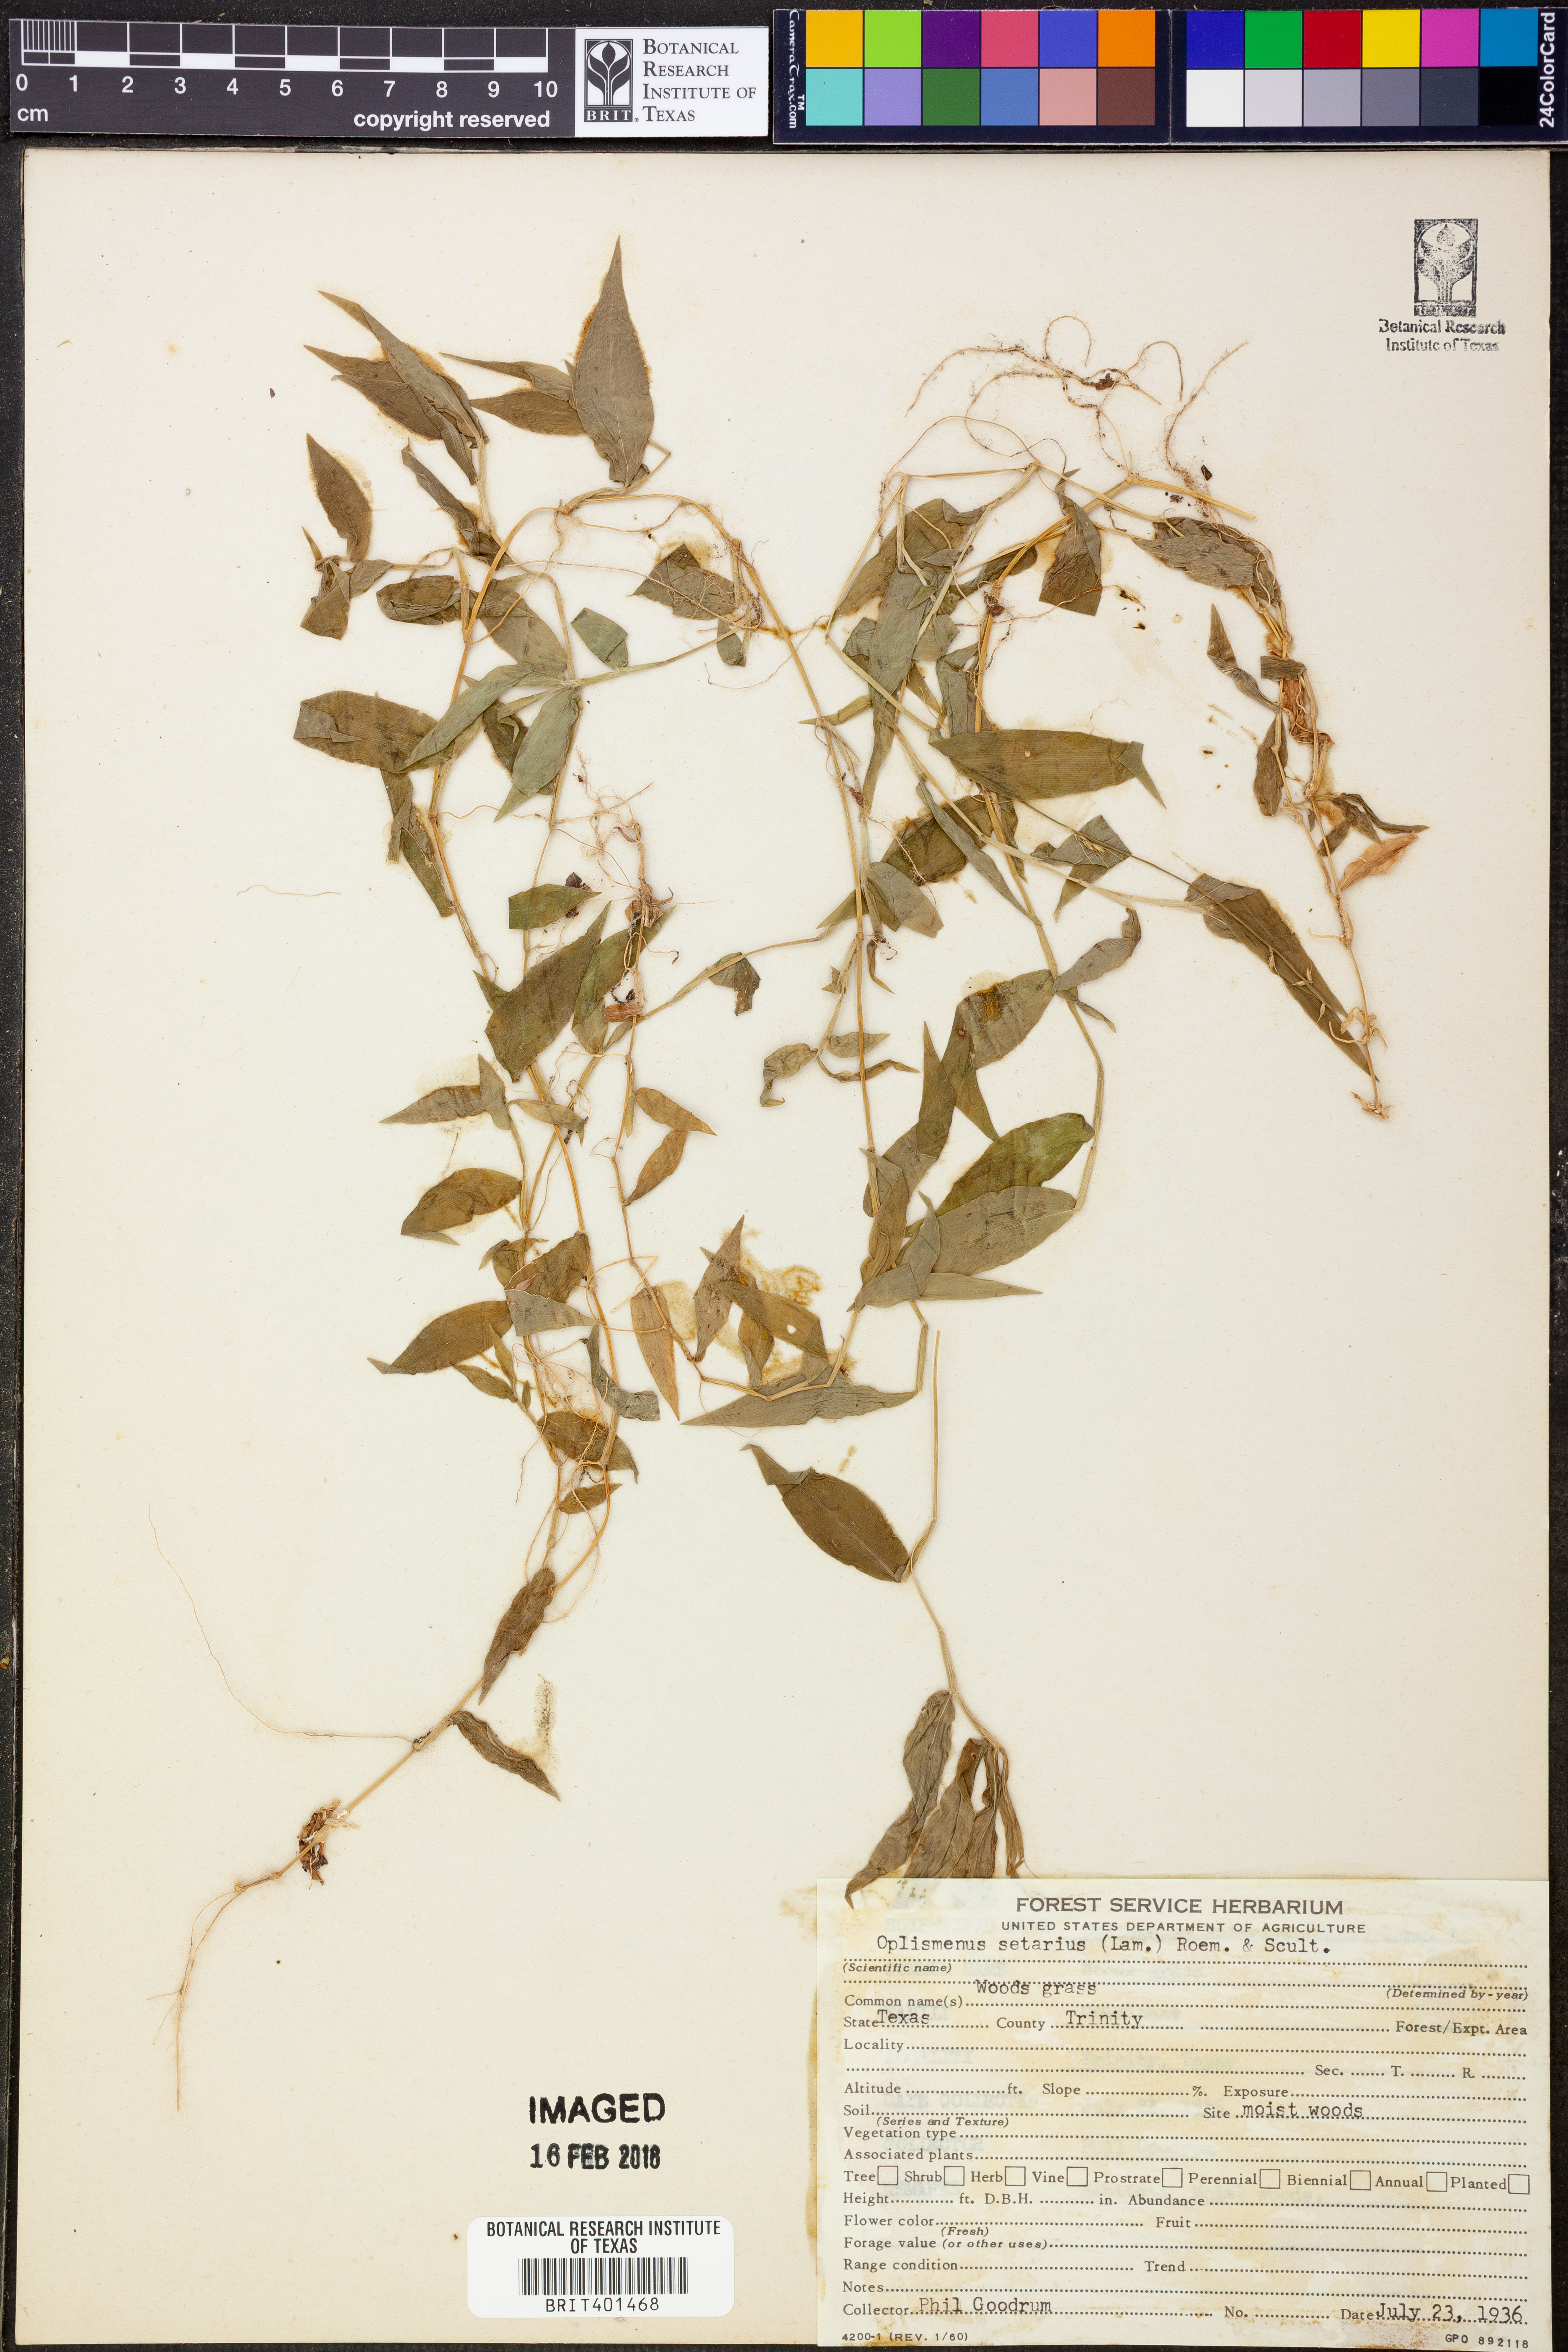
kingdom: Plantae
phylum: Tracheophyta
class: Liliopsida
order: Poales
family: Poaceae
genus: Oplismenus
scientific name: Oplismenus compositus
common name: Running mountain grass
